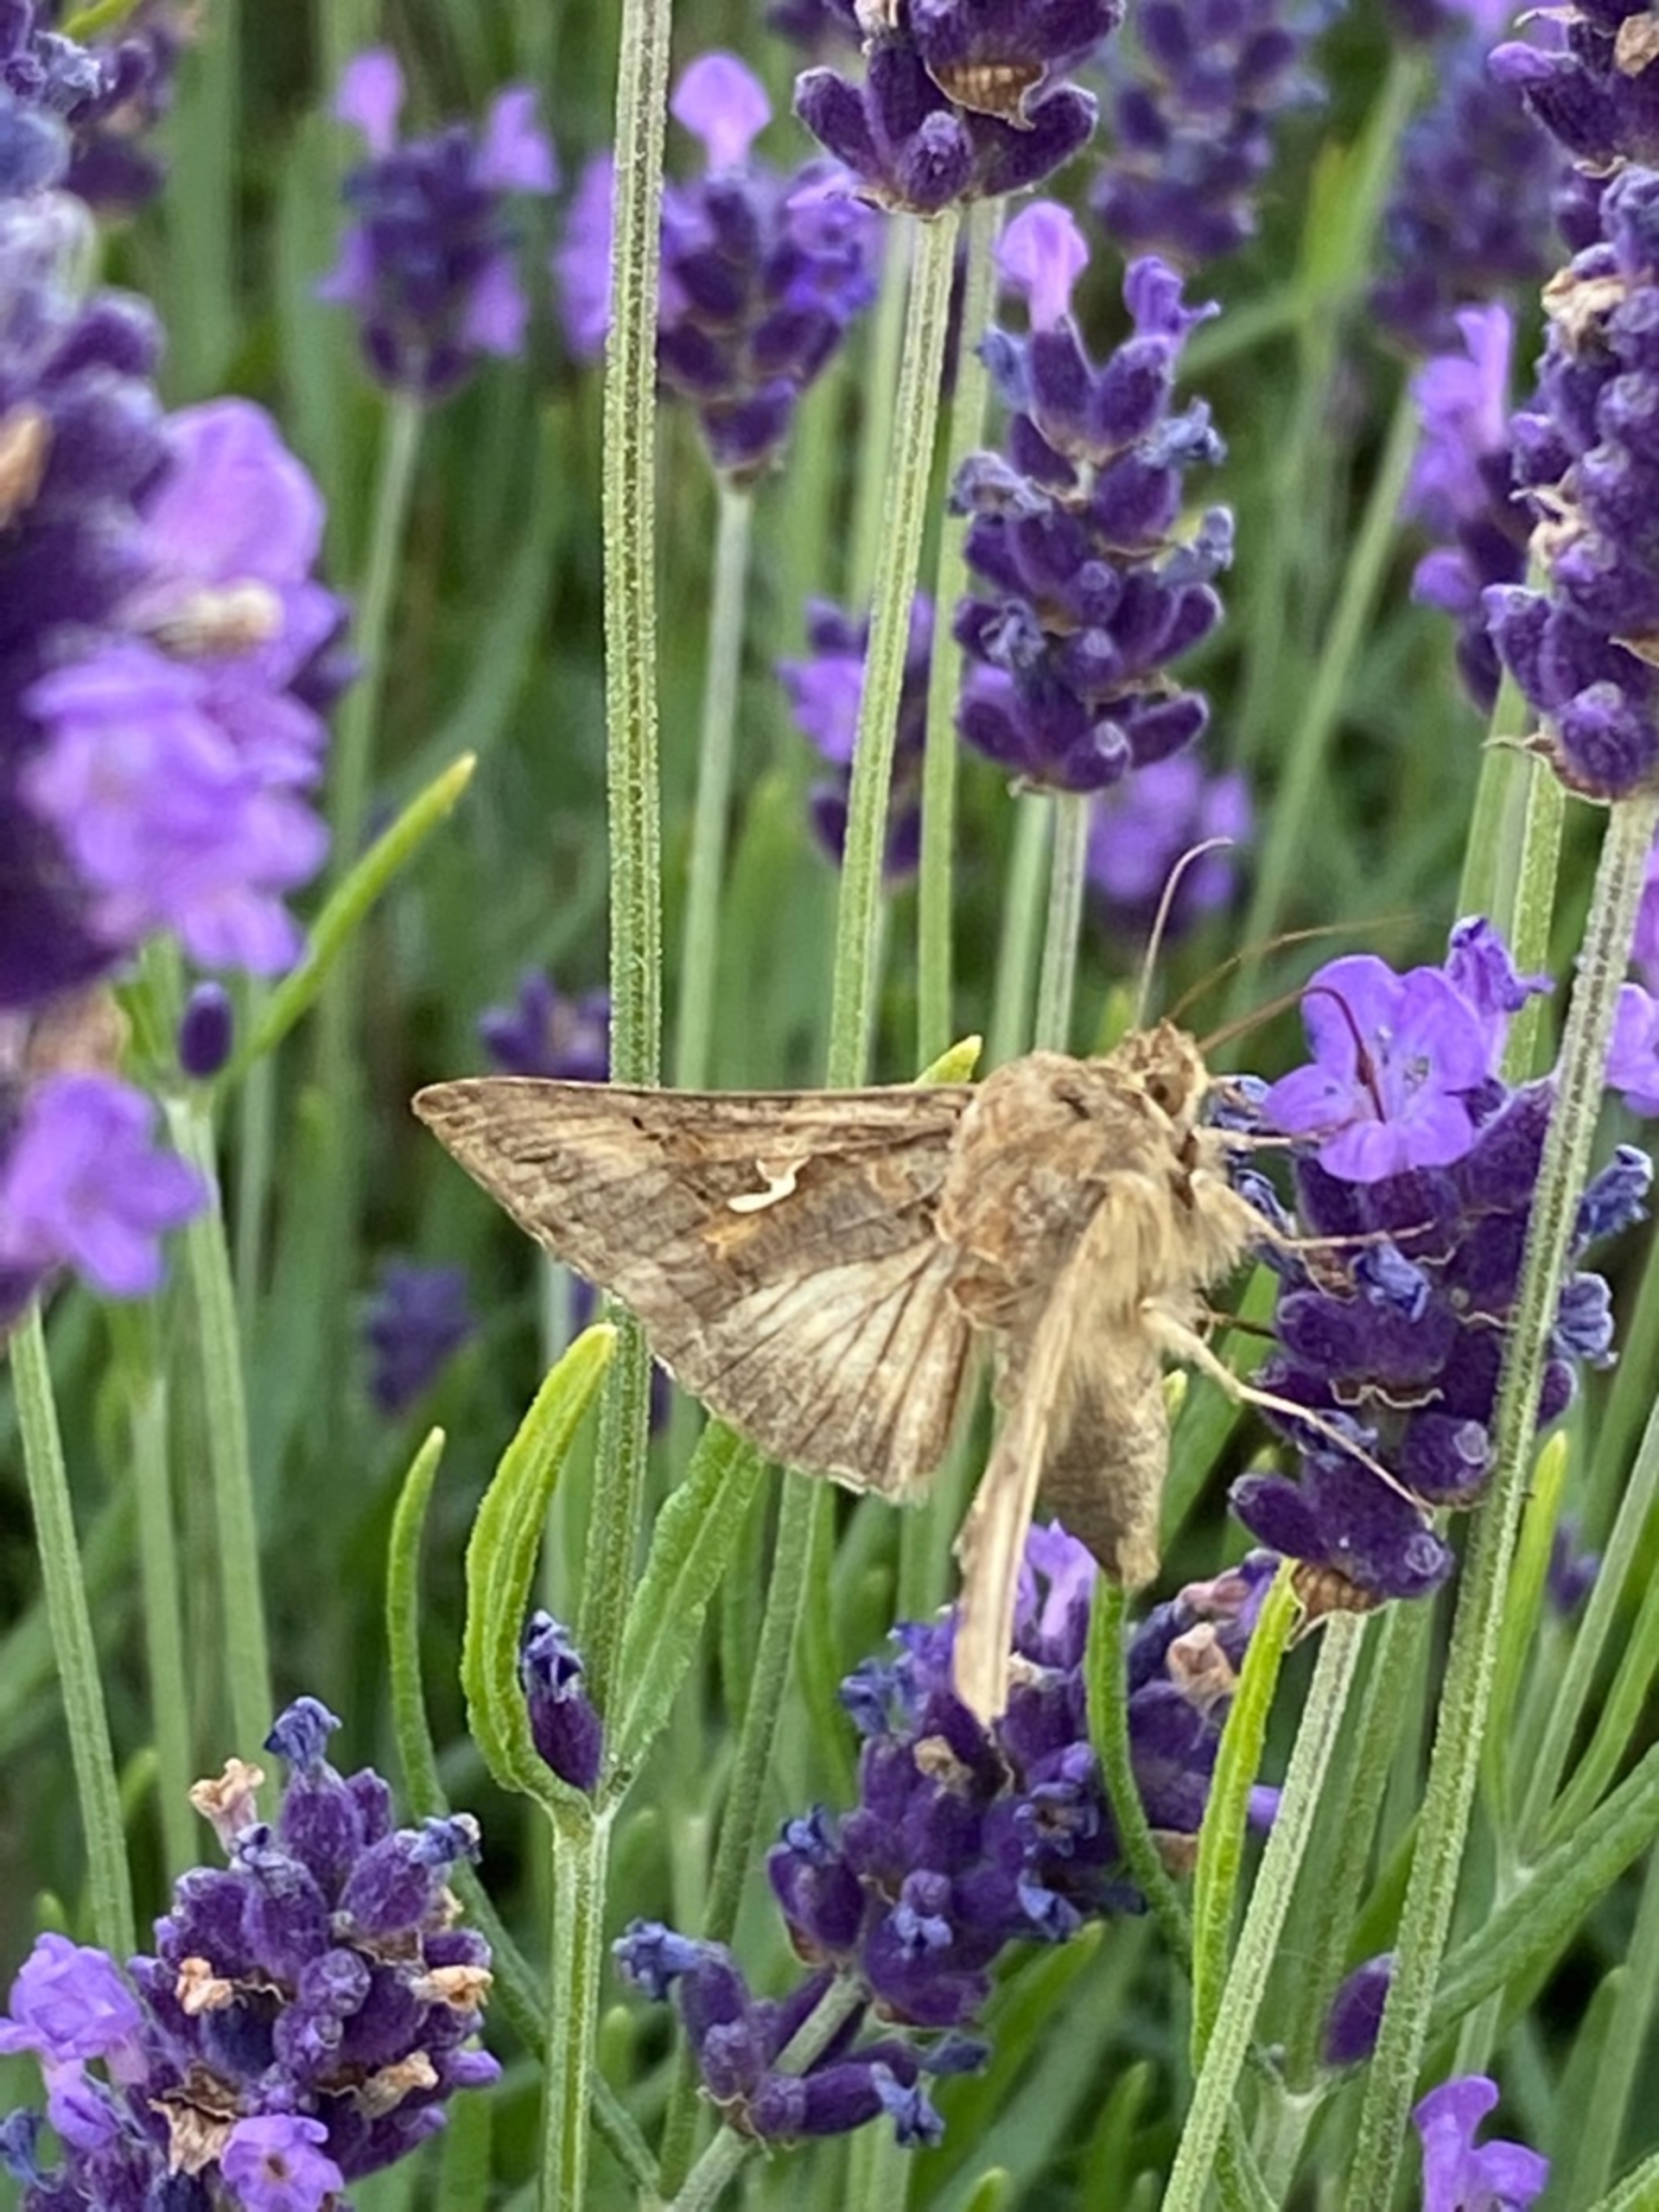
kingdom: Animalia
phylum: Arthropoda
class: Insecta
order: Lepidoptera
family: Noctuidae
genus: Autographa
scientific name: Autographa gamma
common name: Gammaugle
